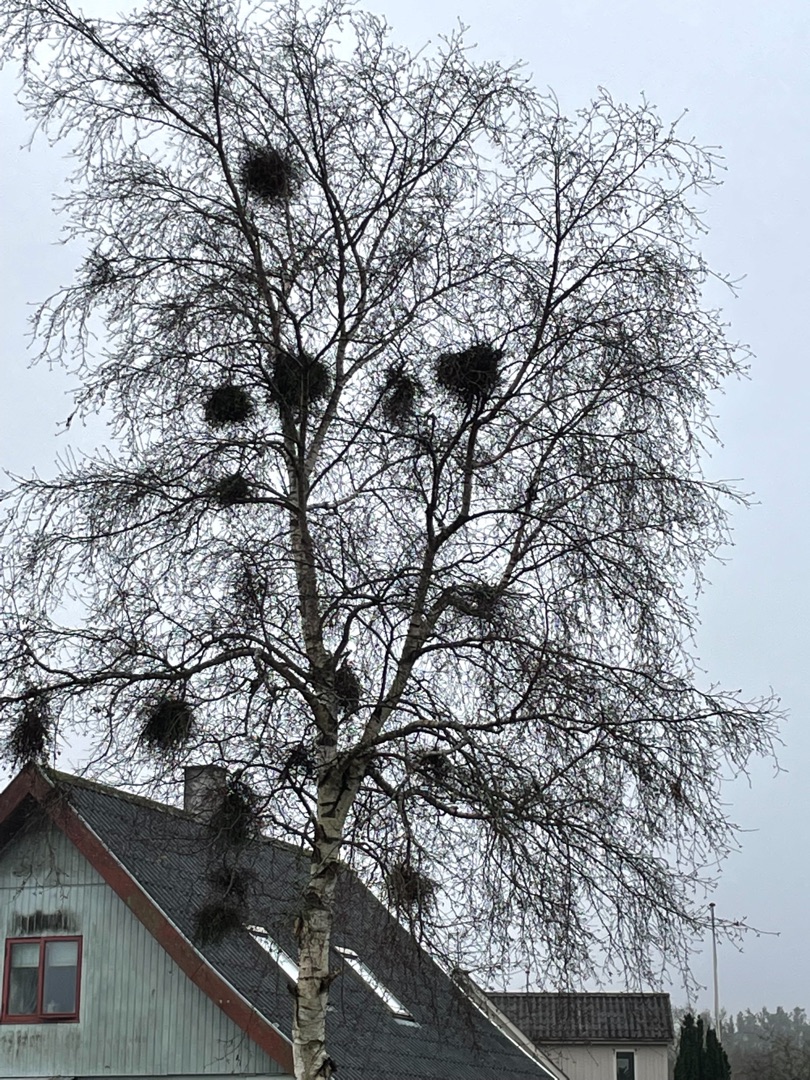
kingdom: Fungi
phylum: Ascomycota
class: Taphrinomycetes
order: Taphrinales
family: Taphrinaceae
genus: Taphrina
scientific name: Taphrina betulina
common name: Hekse-sækdug
